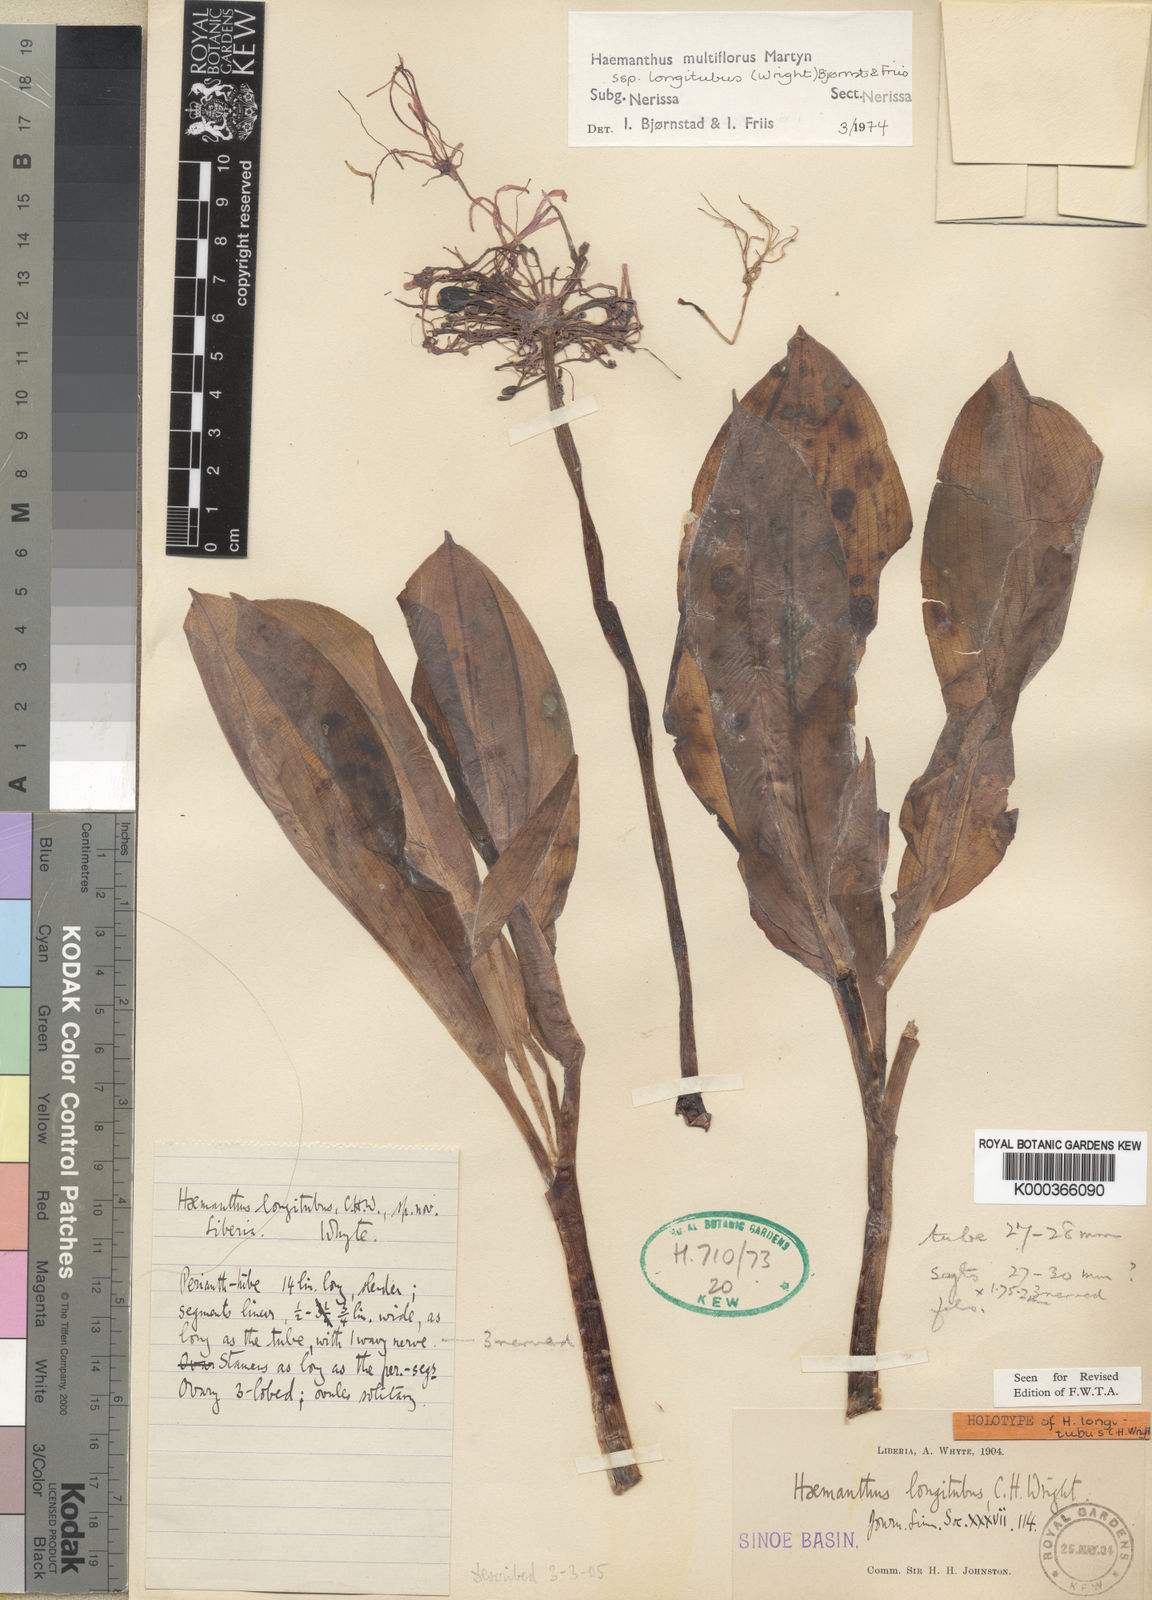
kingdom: Plantae
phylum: Tracheophyta
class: Liliopsida
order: Asparagales
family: Amaryllidaceae
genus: Scadoxus
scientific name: Scadoxus multiflorus
